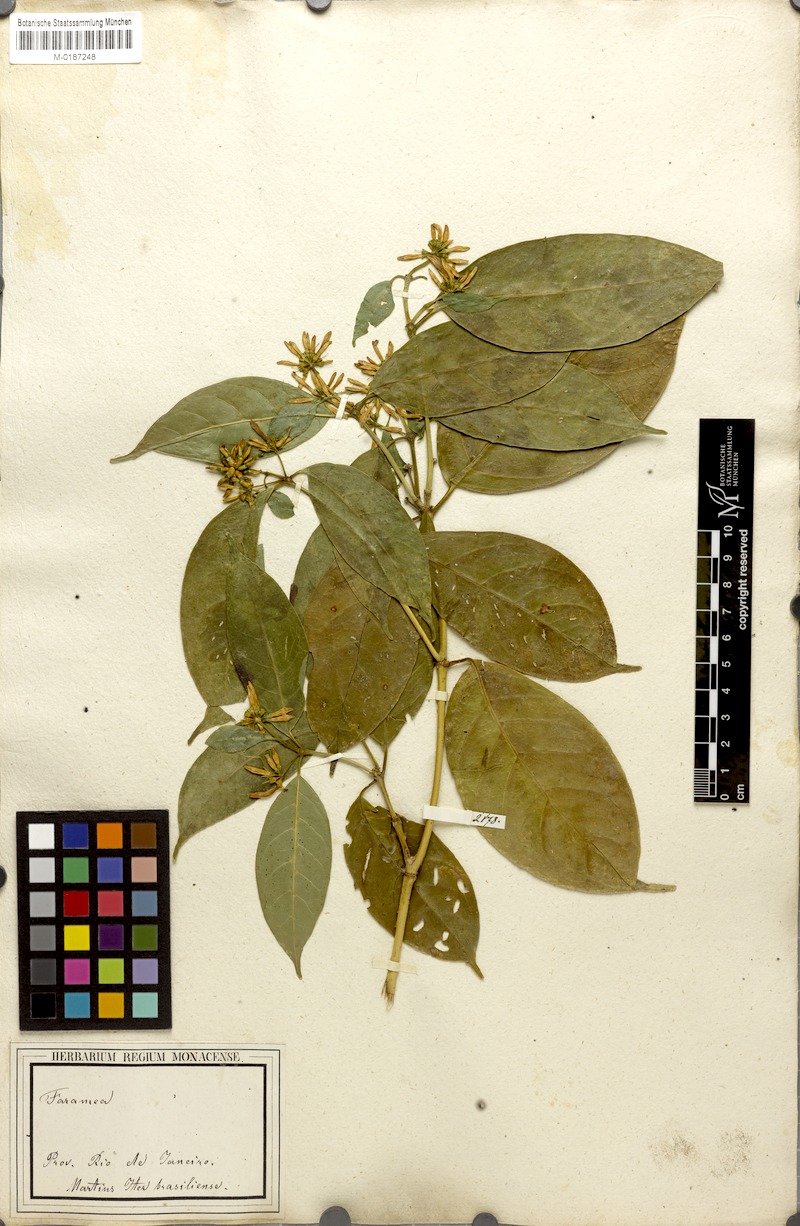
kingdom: Plantae
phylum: Tracheophyta
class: Magnoliopsida
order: Gentianales
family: Rubiaceae
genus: Coussarea
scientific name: Coussarea nodosa
